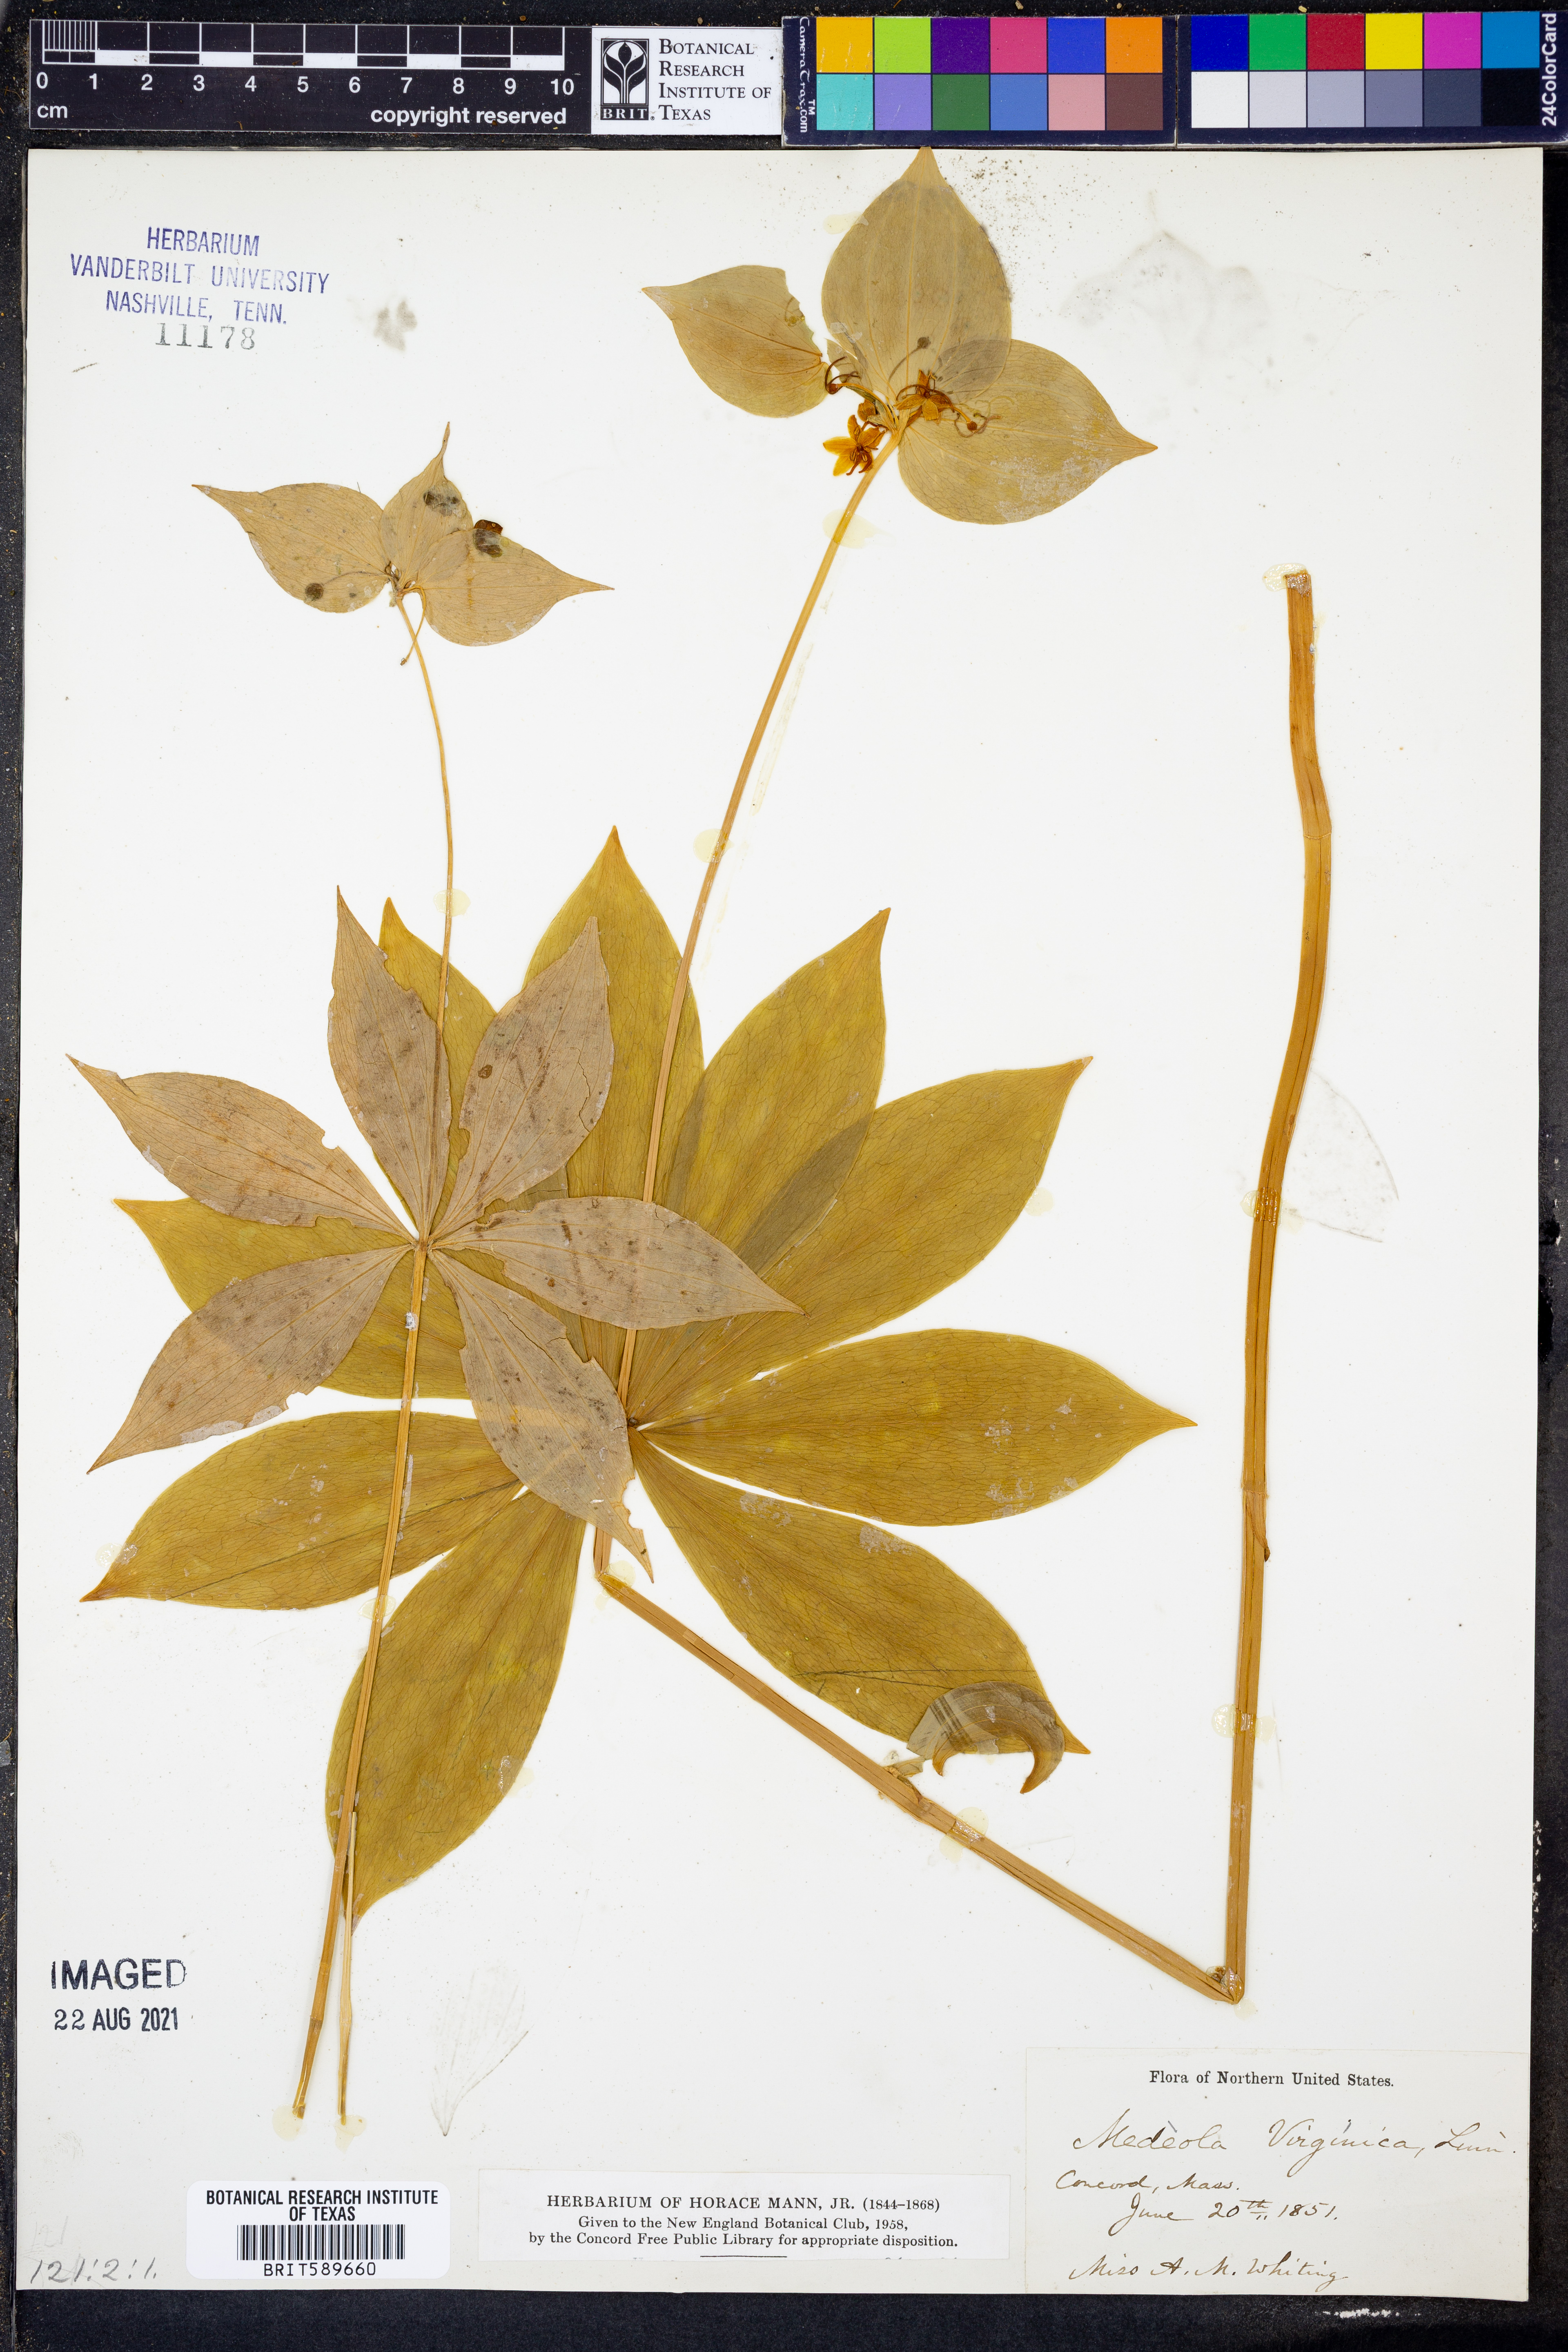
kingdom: Plantae
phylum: Tracheophyta
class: Liliopsida
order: Liliales
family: Liliaceae
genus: Medeola
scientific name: Medeola virginiana
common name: Indian cucumber-root
